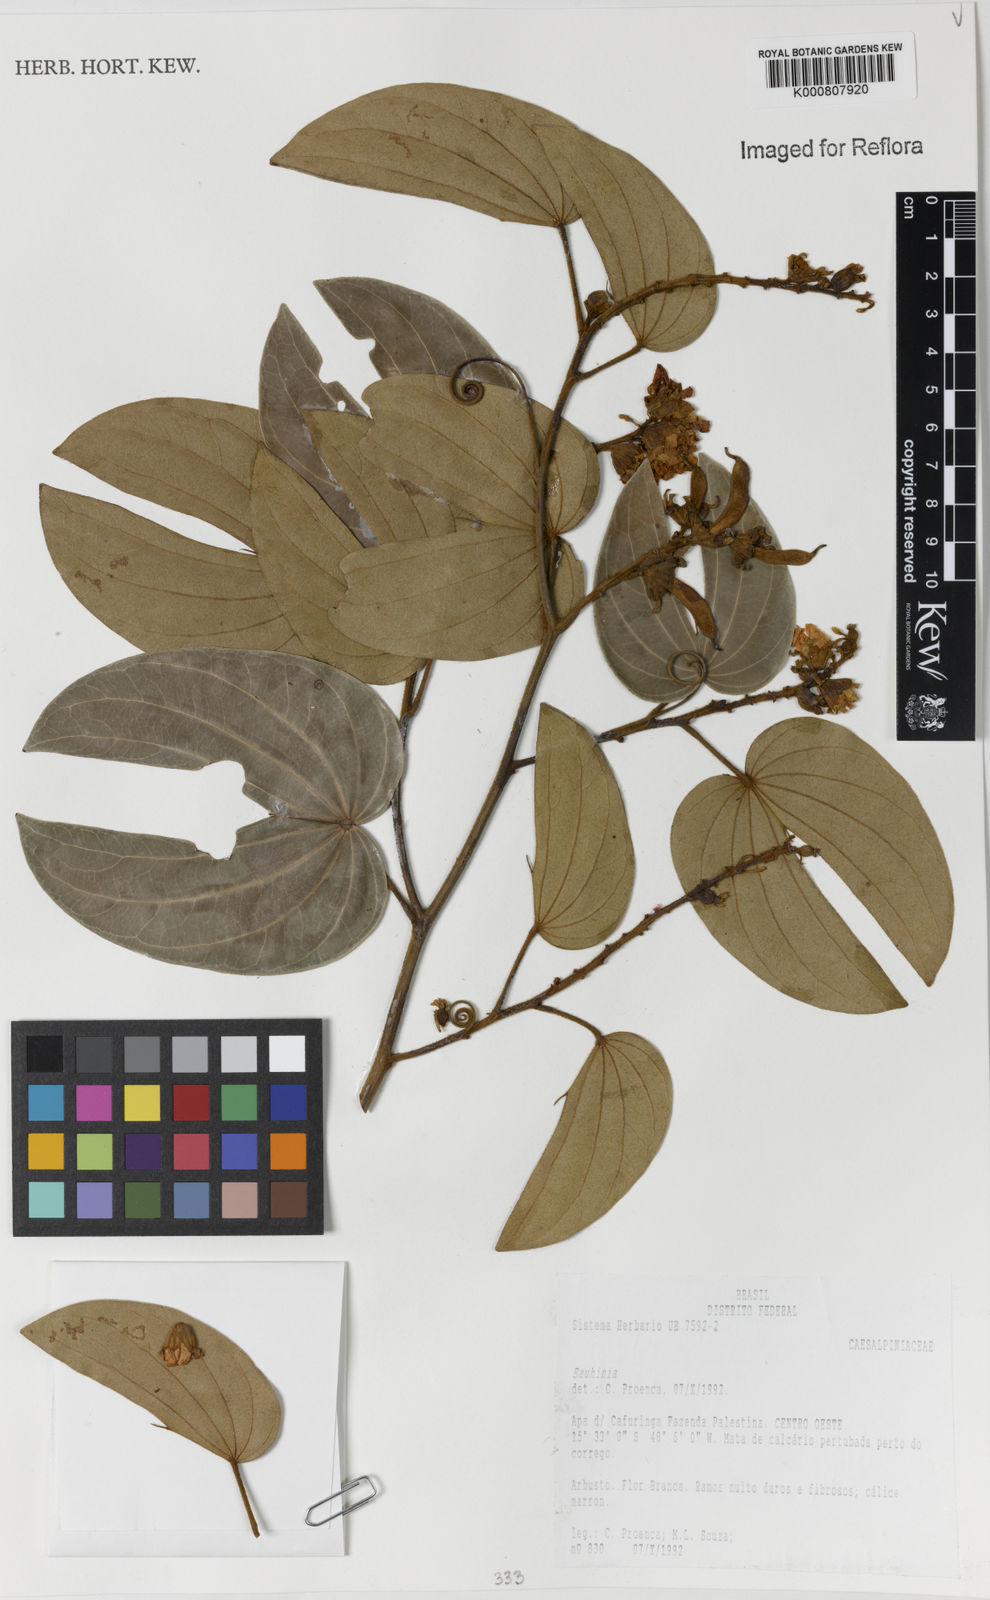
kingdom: Plantae
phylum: Tracheophyta
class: Magnoliopsida
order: Fabales
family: Fabaceae
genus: Bauhinia
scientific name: Bauhinia
